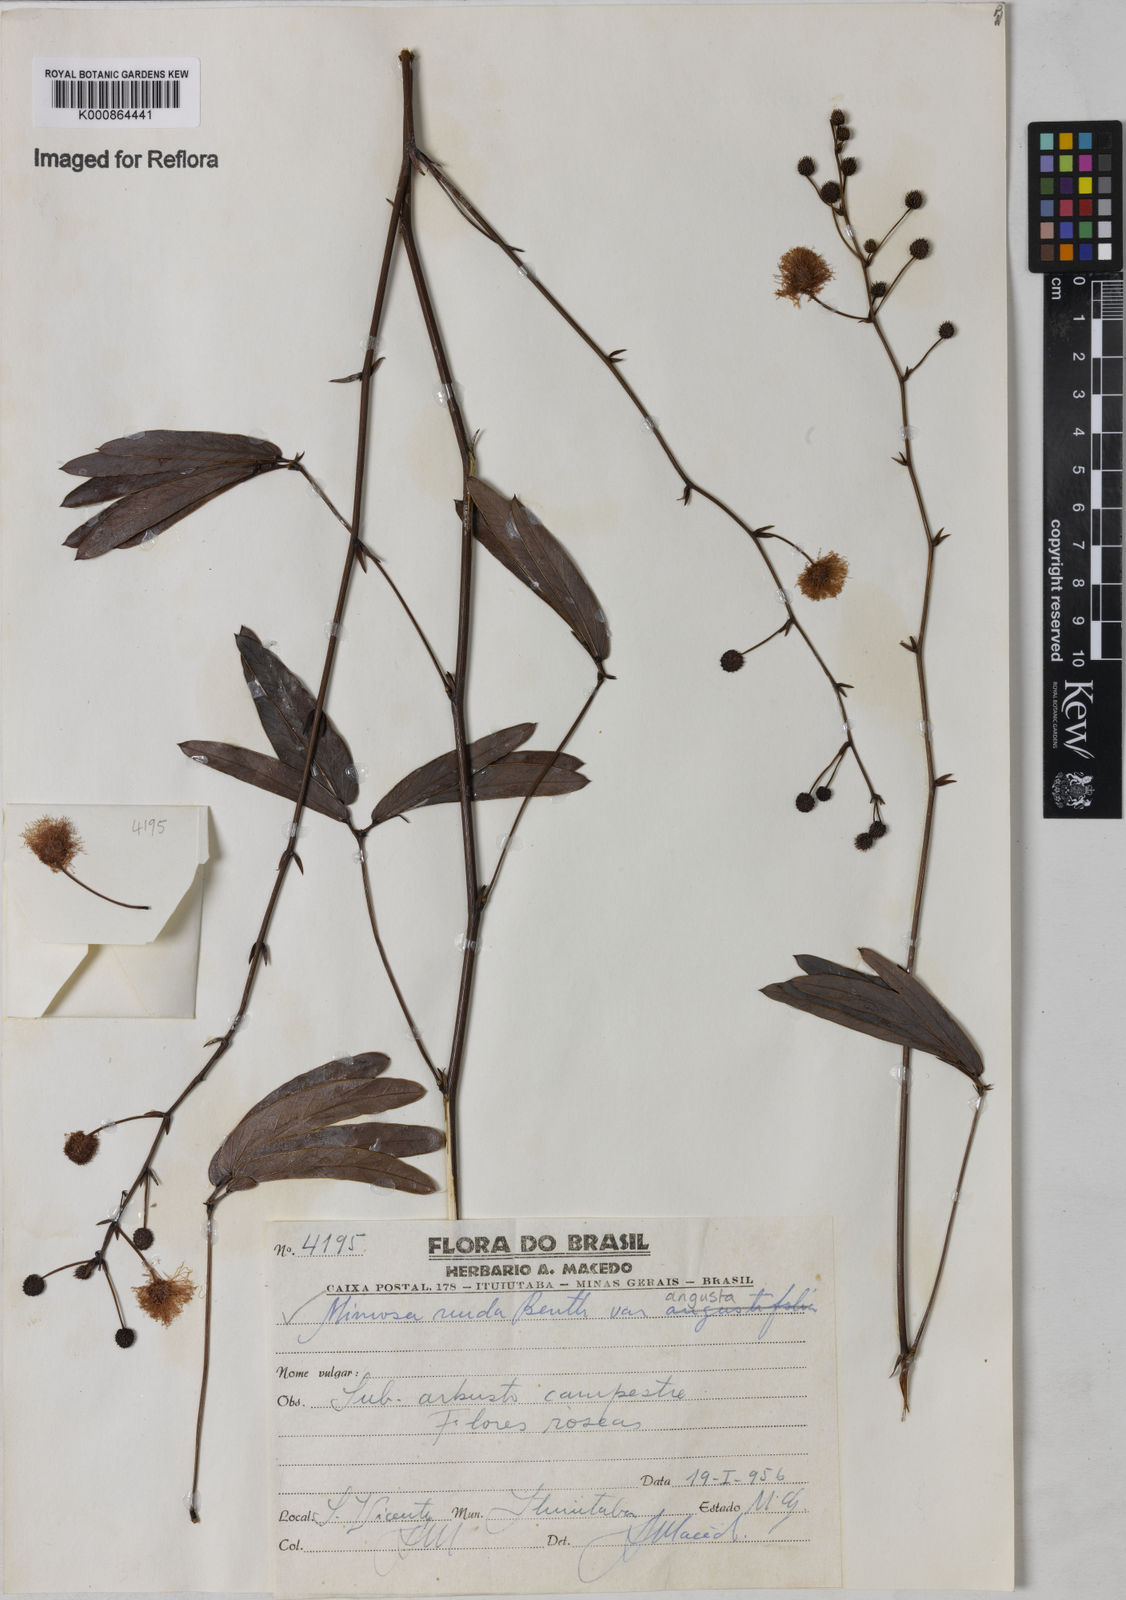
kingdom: Plantae
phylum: Tracheophyta
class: Magnoliopsida
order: Fabales
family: Fabaceae
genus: Mimosa
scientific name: Mimosa debilis
